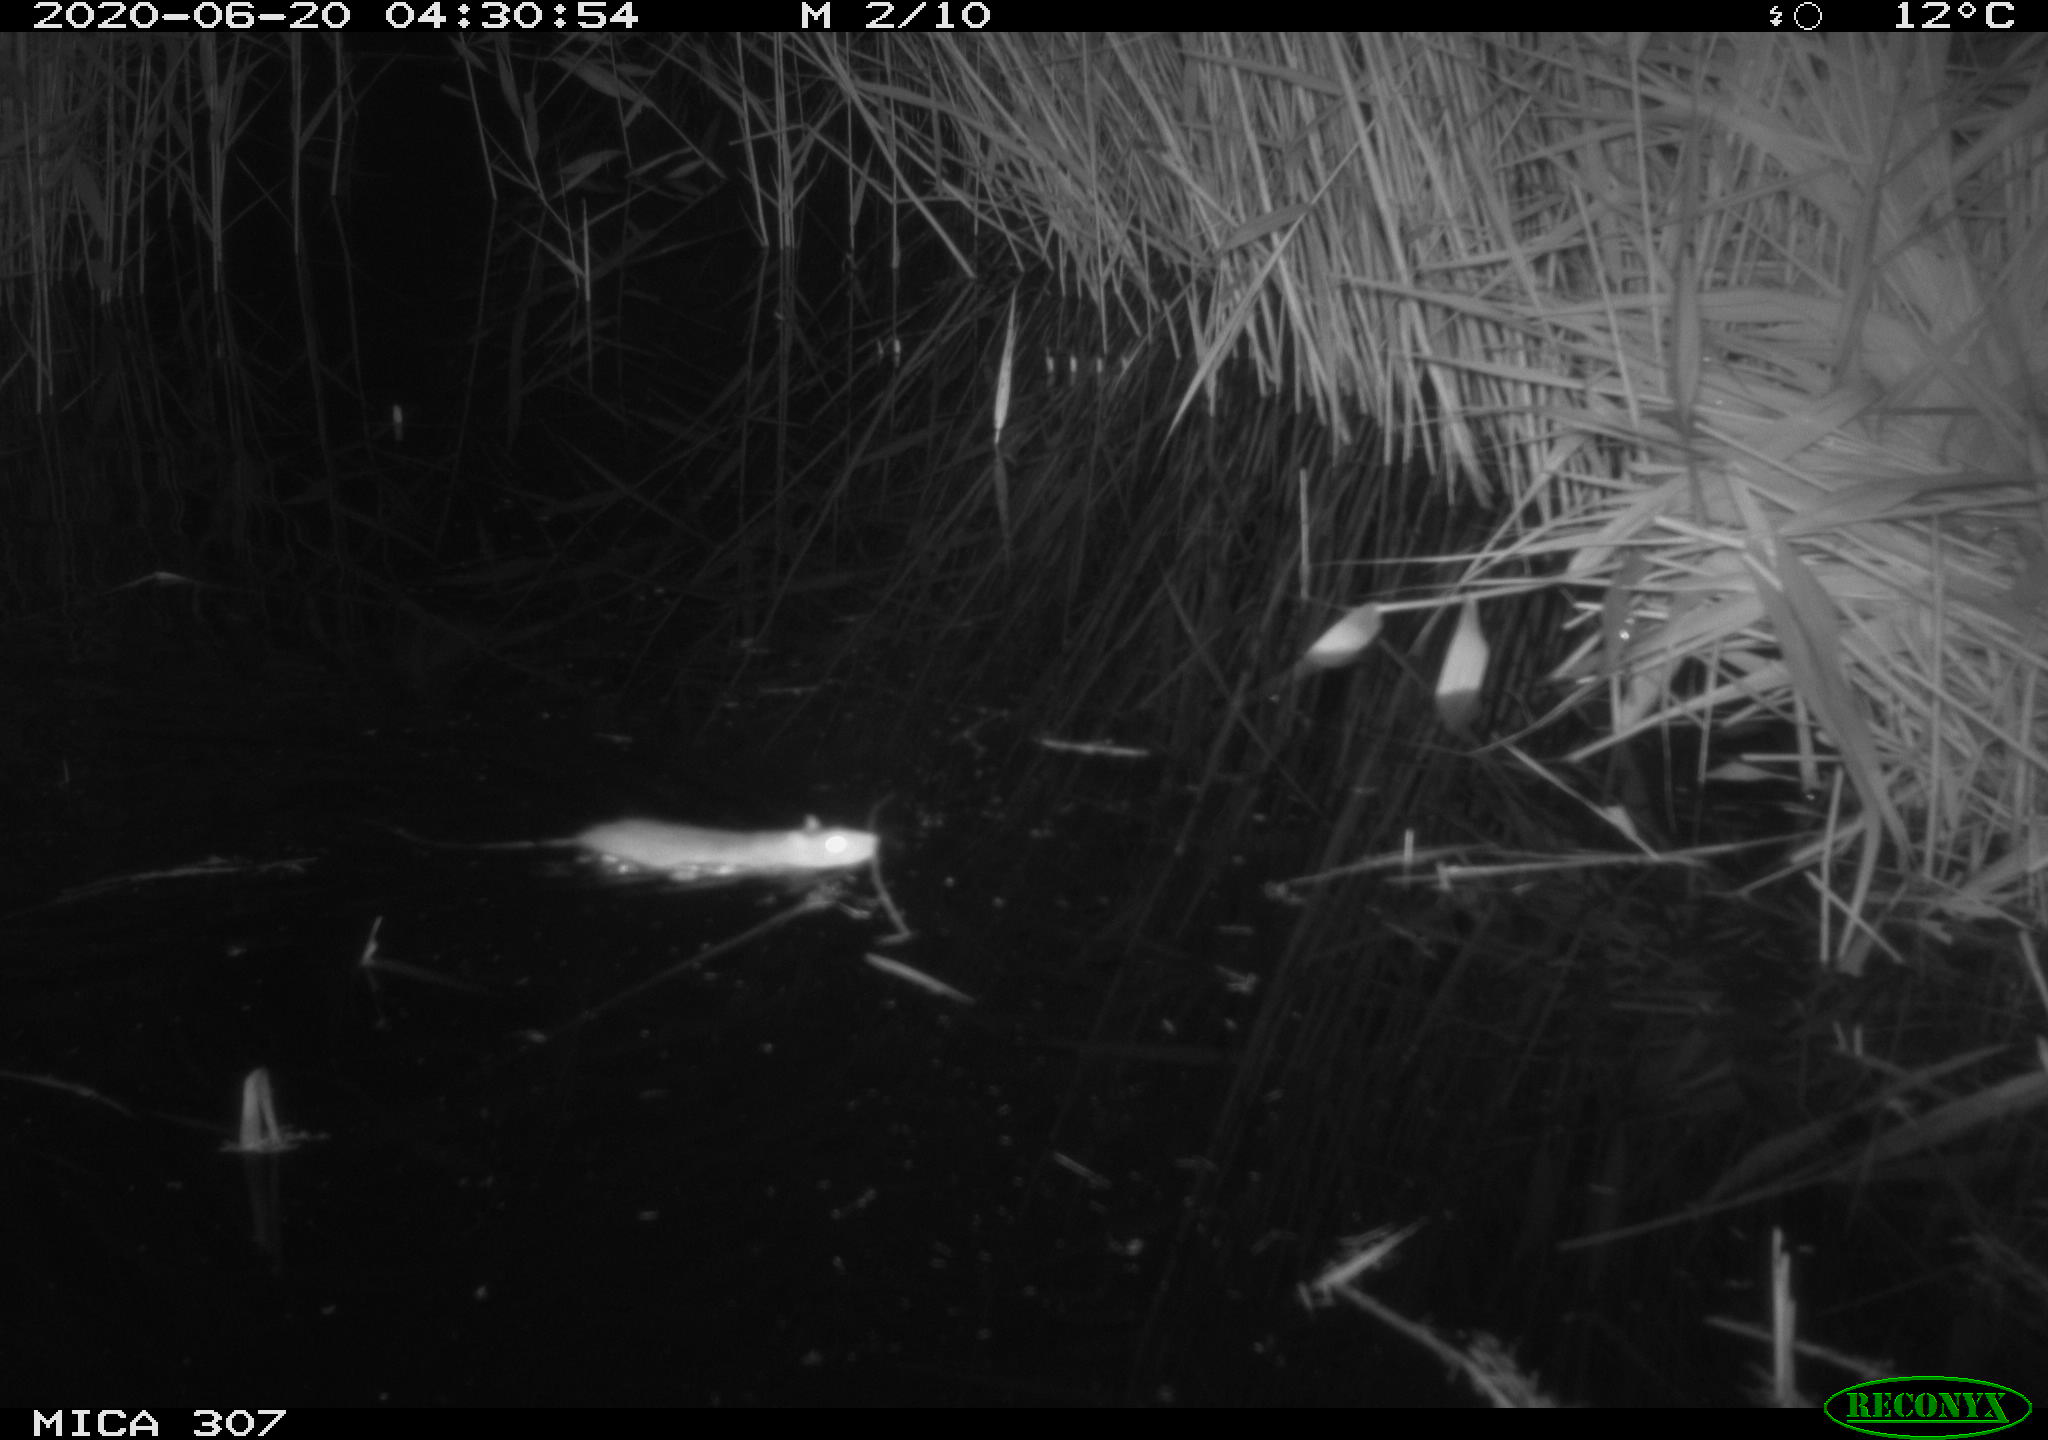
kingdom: Animalia
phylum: Chordata
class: Mammalia
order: Rodentia
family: Muridae
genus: Rattus
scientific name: Rattus norvegicus
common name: Brown rat
